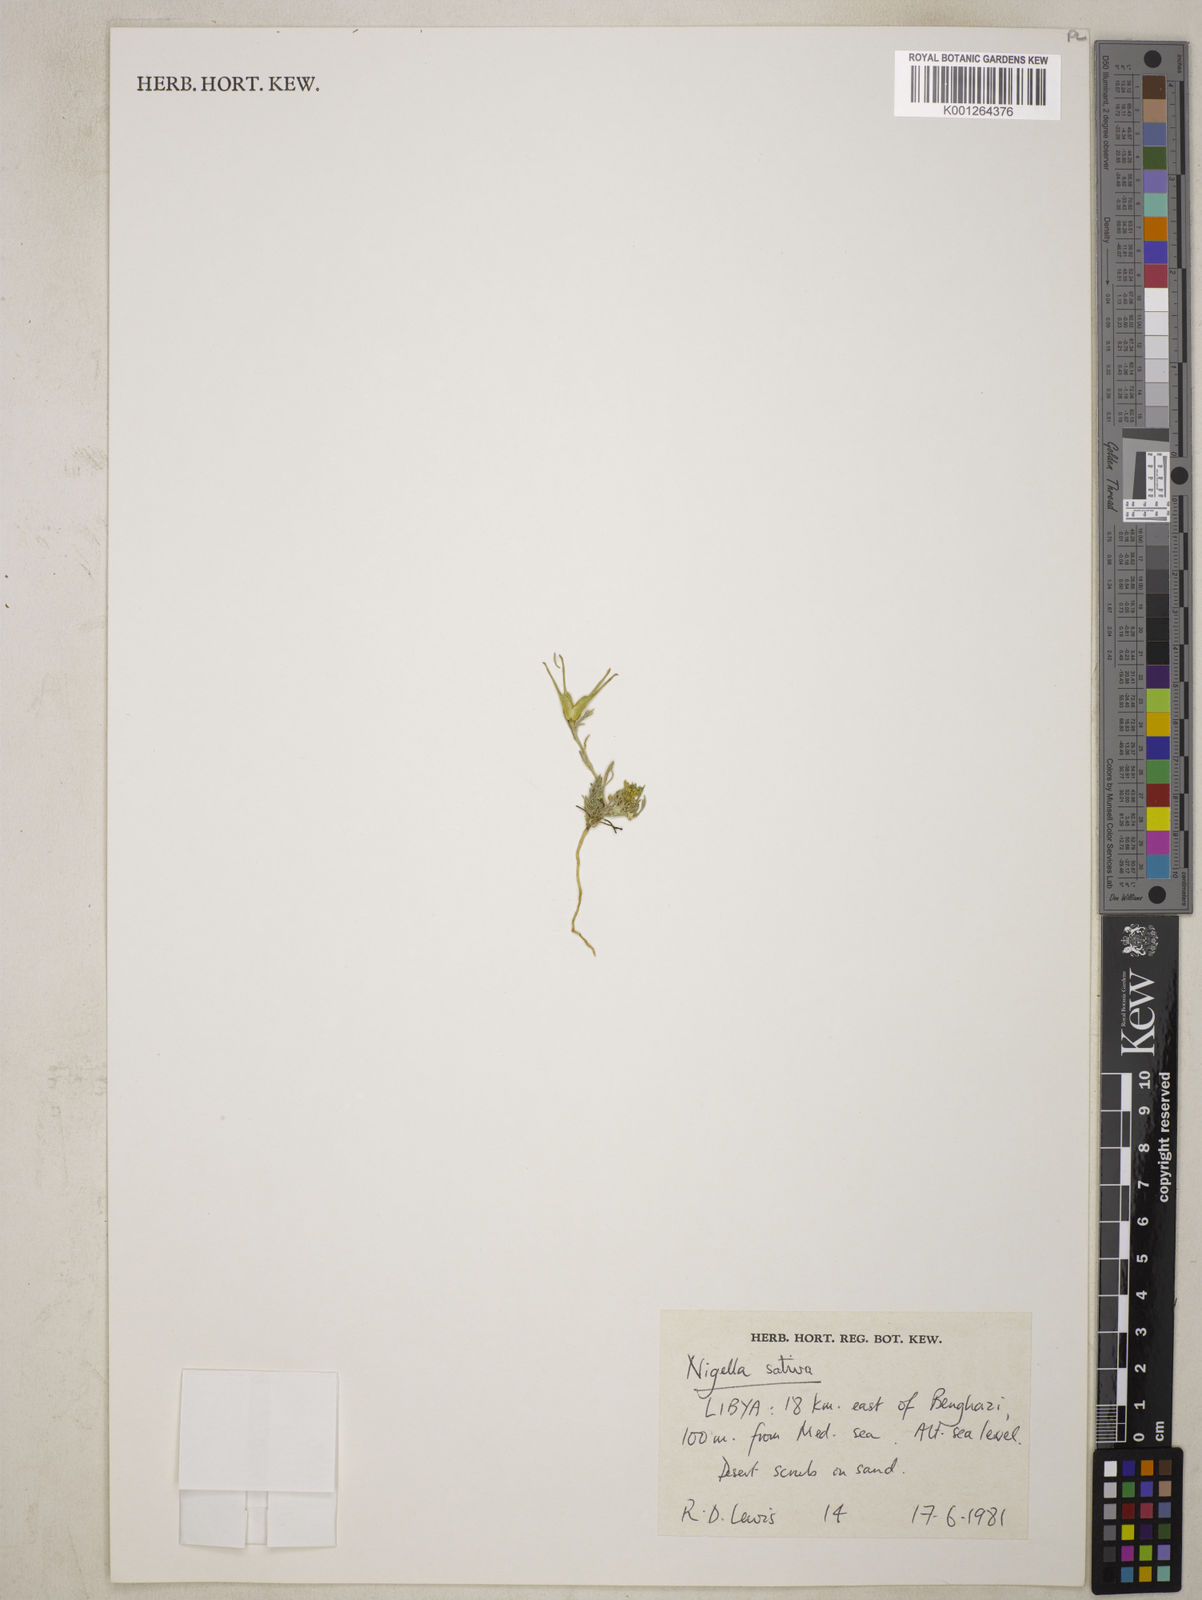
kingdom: Plantae
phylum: Tracheophyta
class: Magnoliopsida
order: Ranunculales
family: Ranunculaceae
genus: Nigella
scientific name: Nigella hispanica
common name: Fennel-flower
